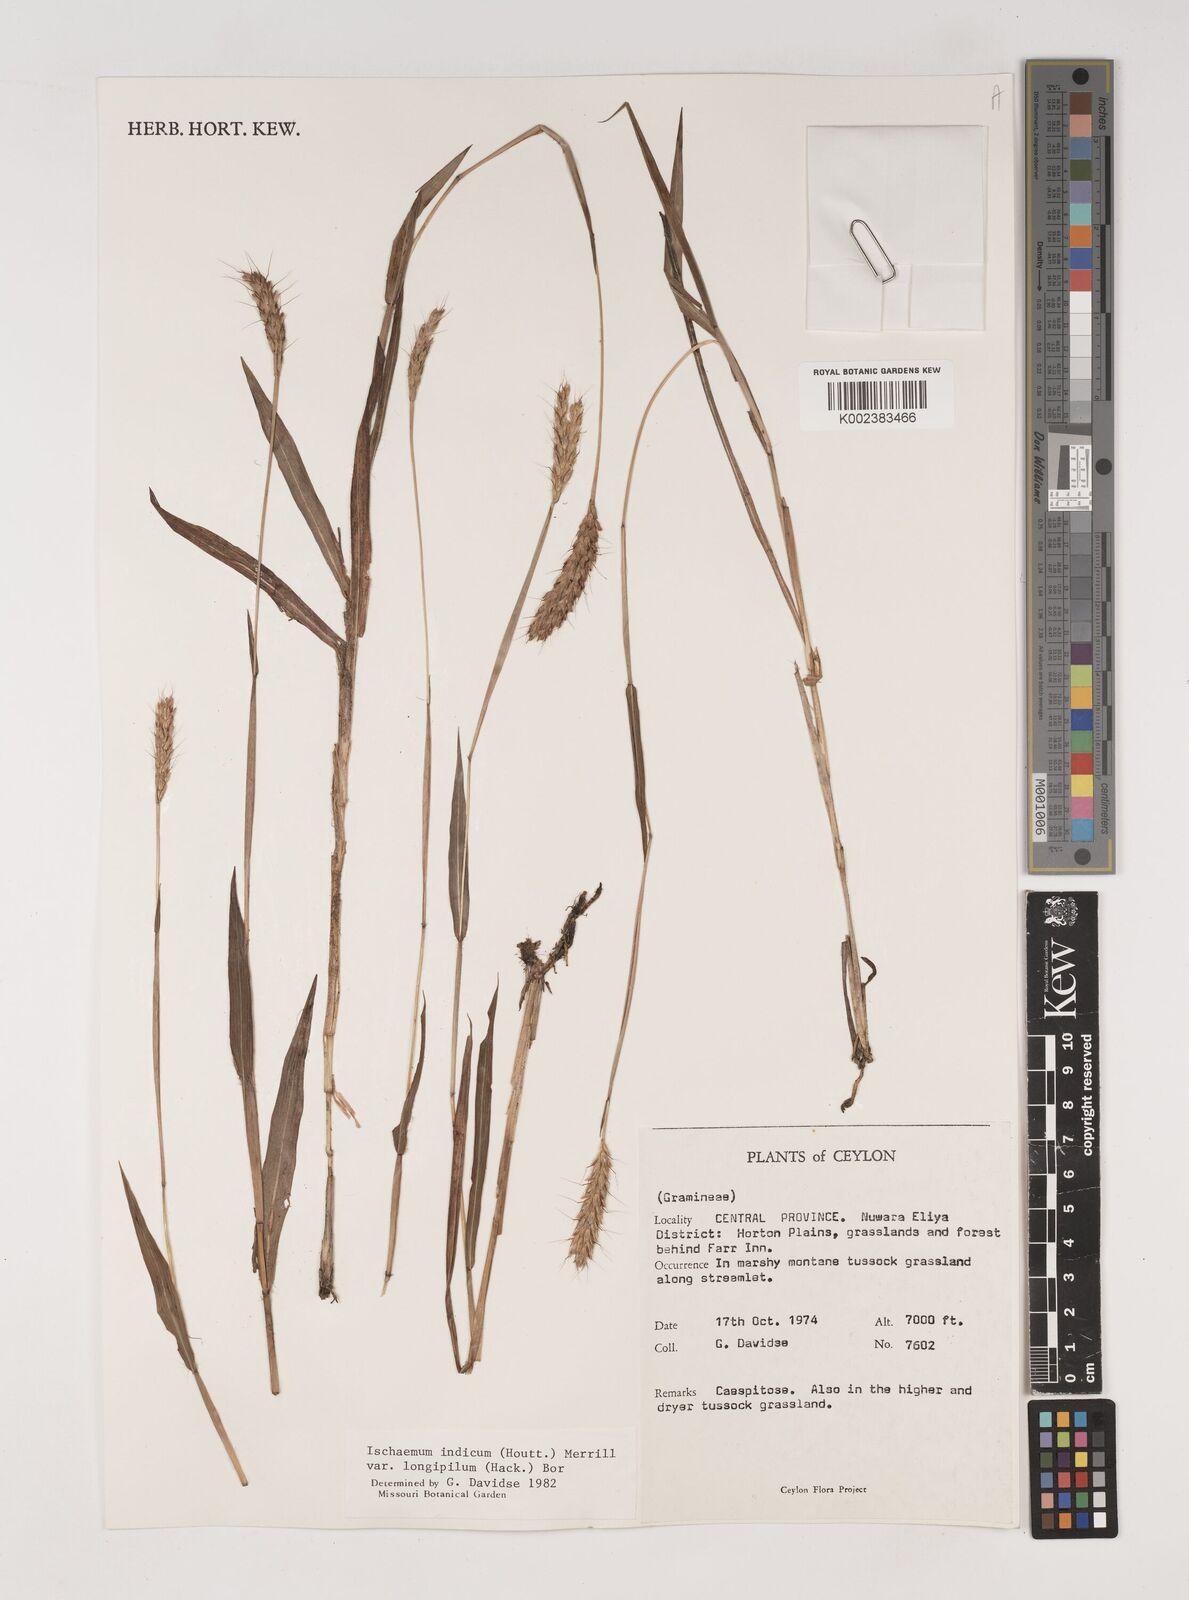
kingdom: Plantae
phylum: Tracheophyta
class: Liliopsida
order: Poales
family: Poaceae
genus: Polytrias
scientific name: Polytrias indica
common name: Indian murainagrass
